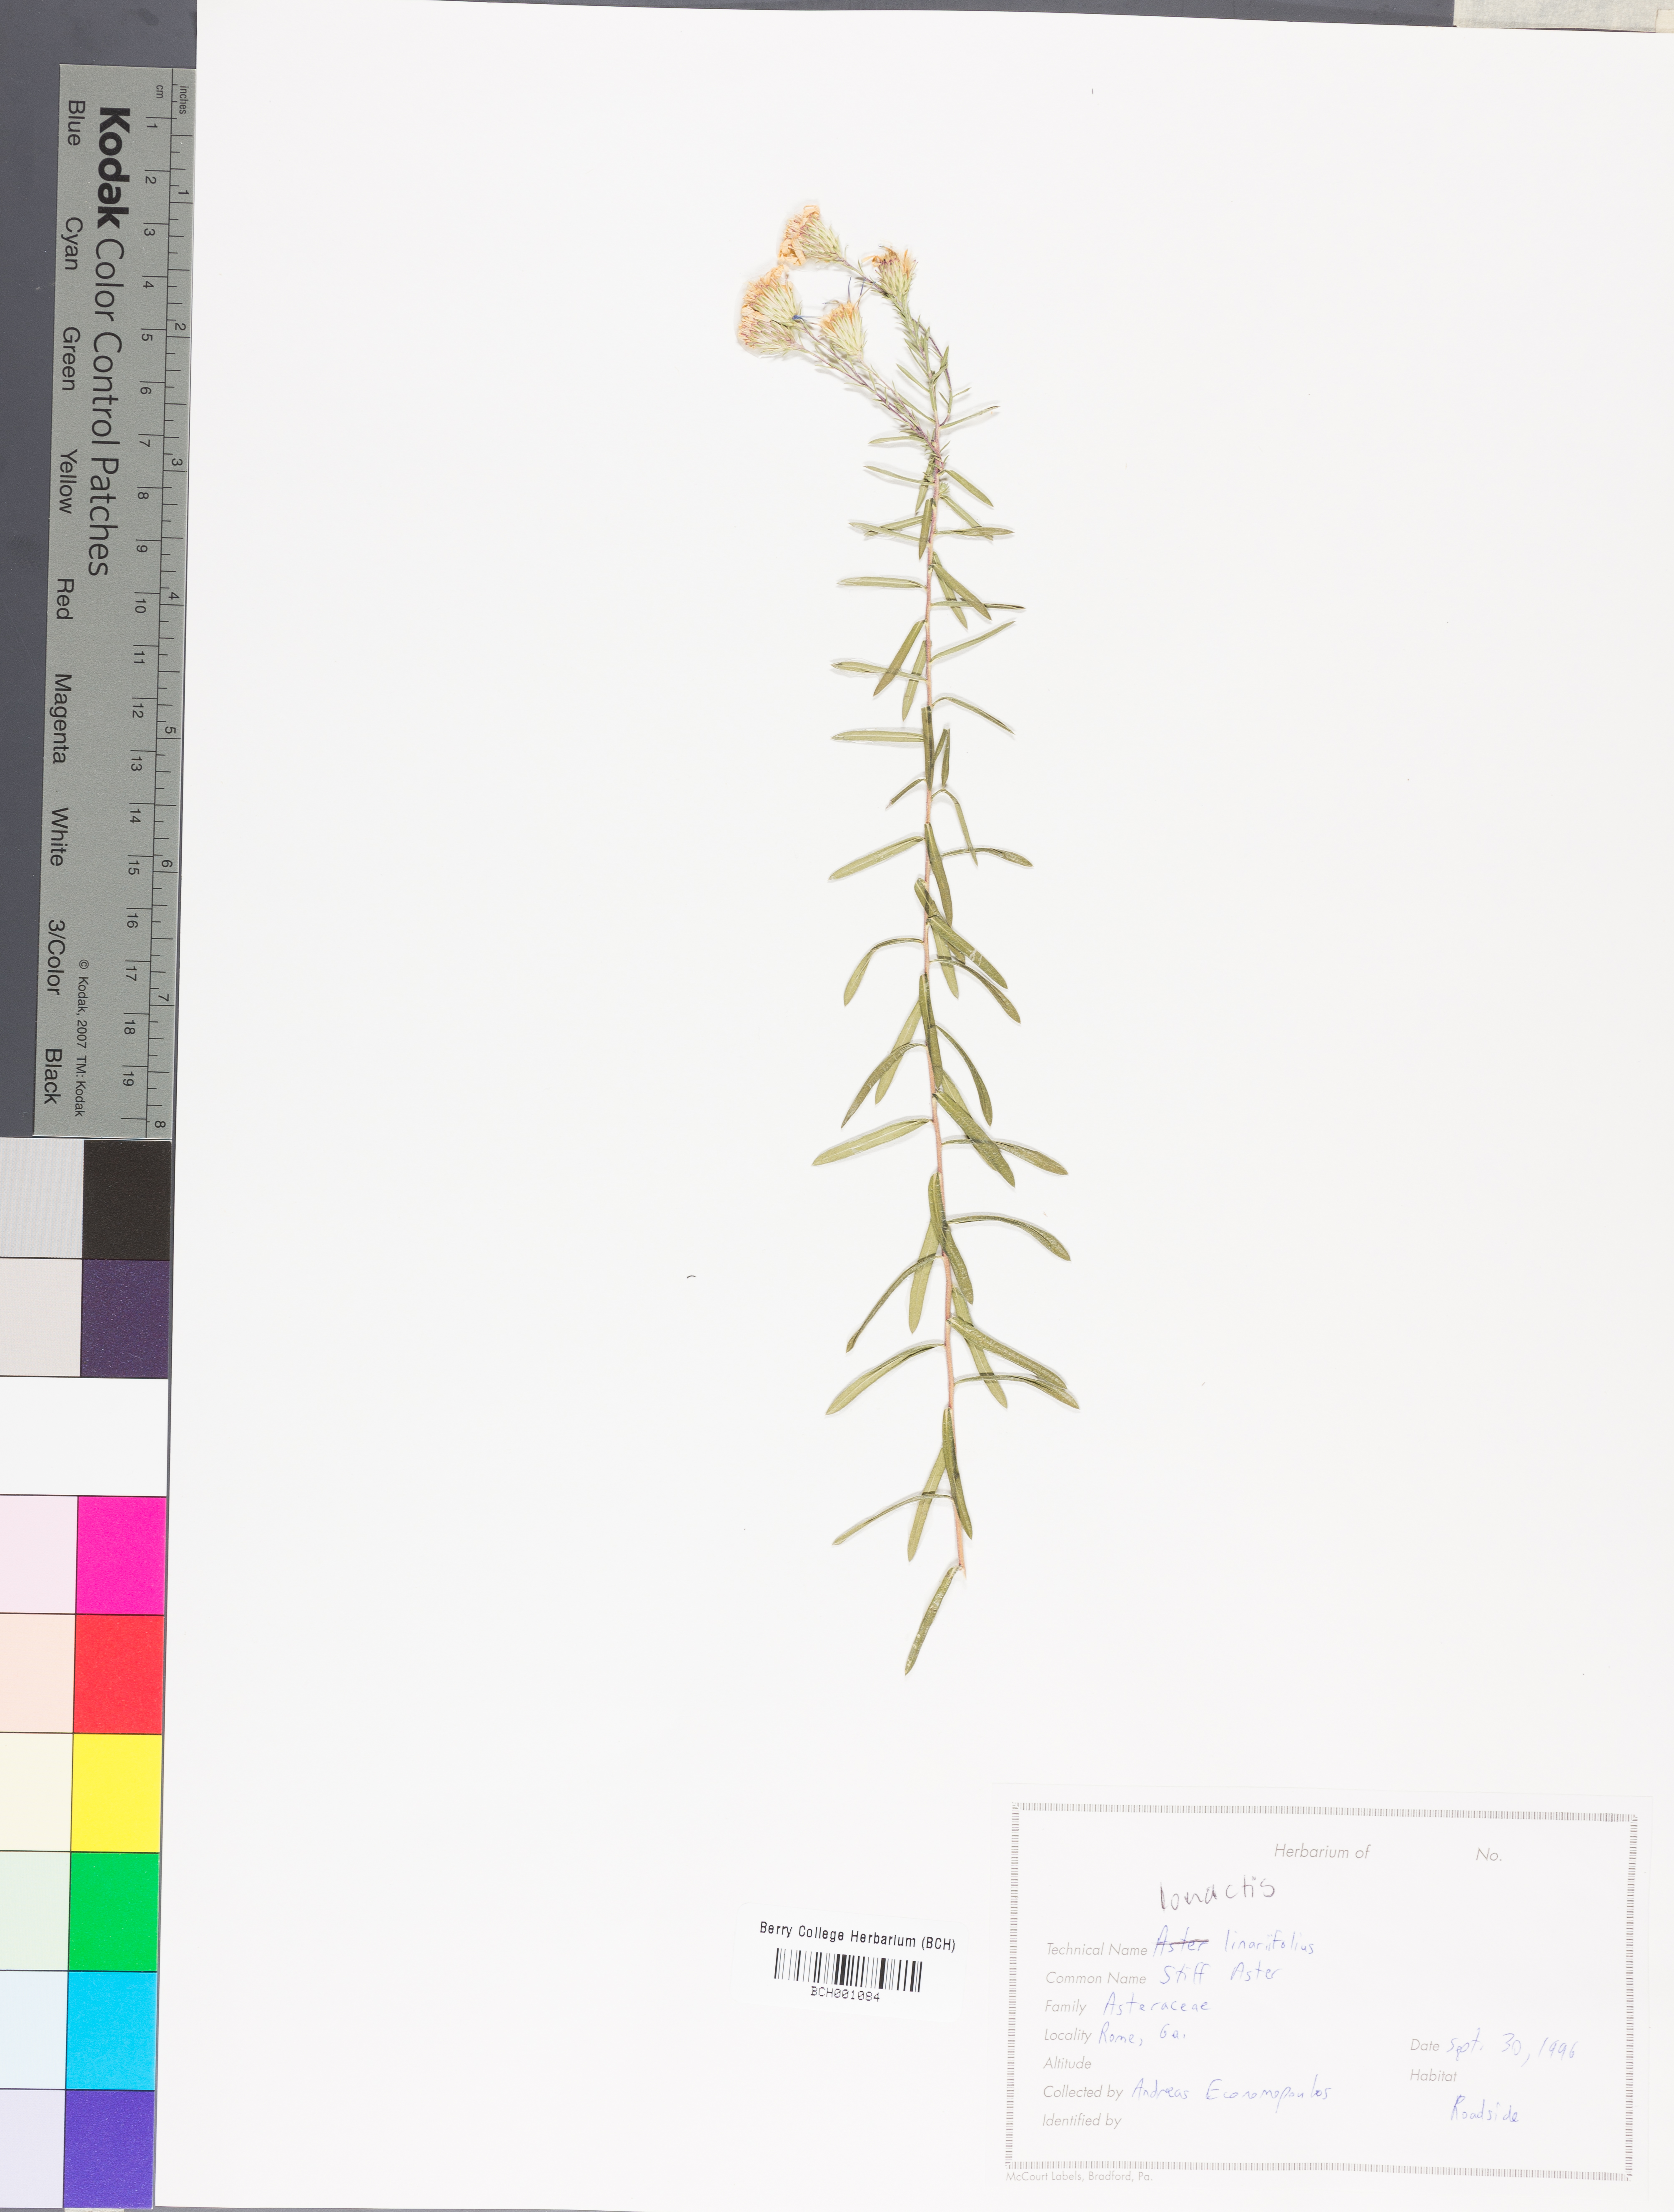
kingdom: Plantae
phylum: Tracheophyta
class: Magnoliopsida
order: Asterales
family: Asteraceae
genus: Ionactis
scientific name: Ionactis linariifolia
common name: Flax-leaf aster
